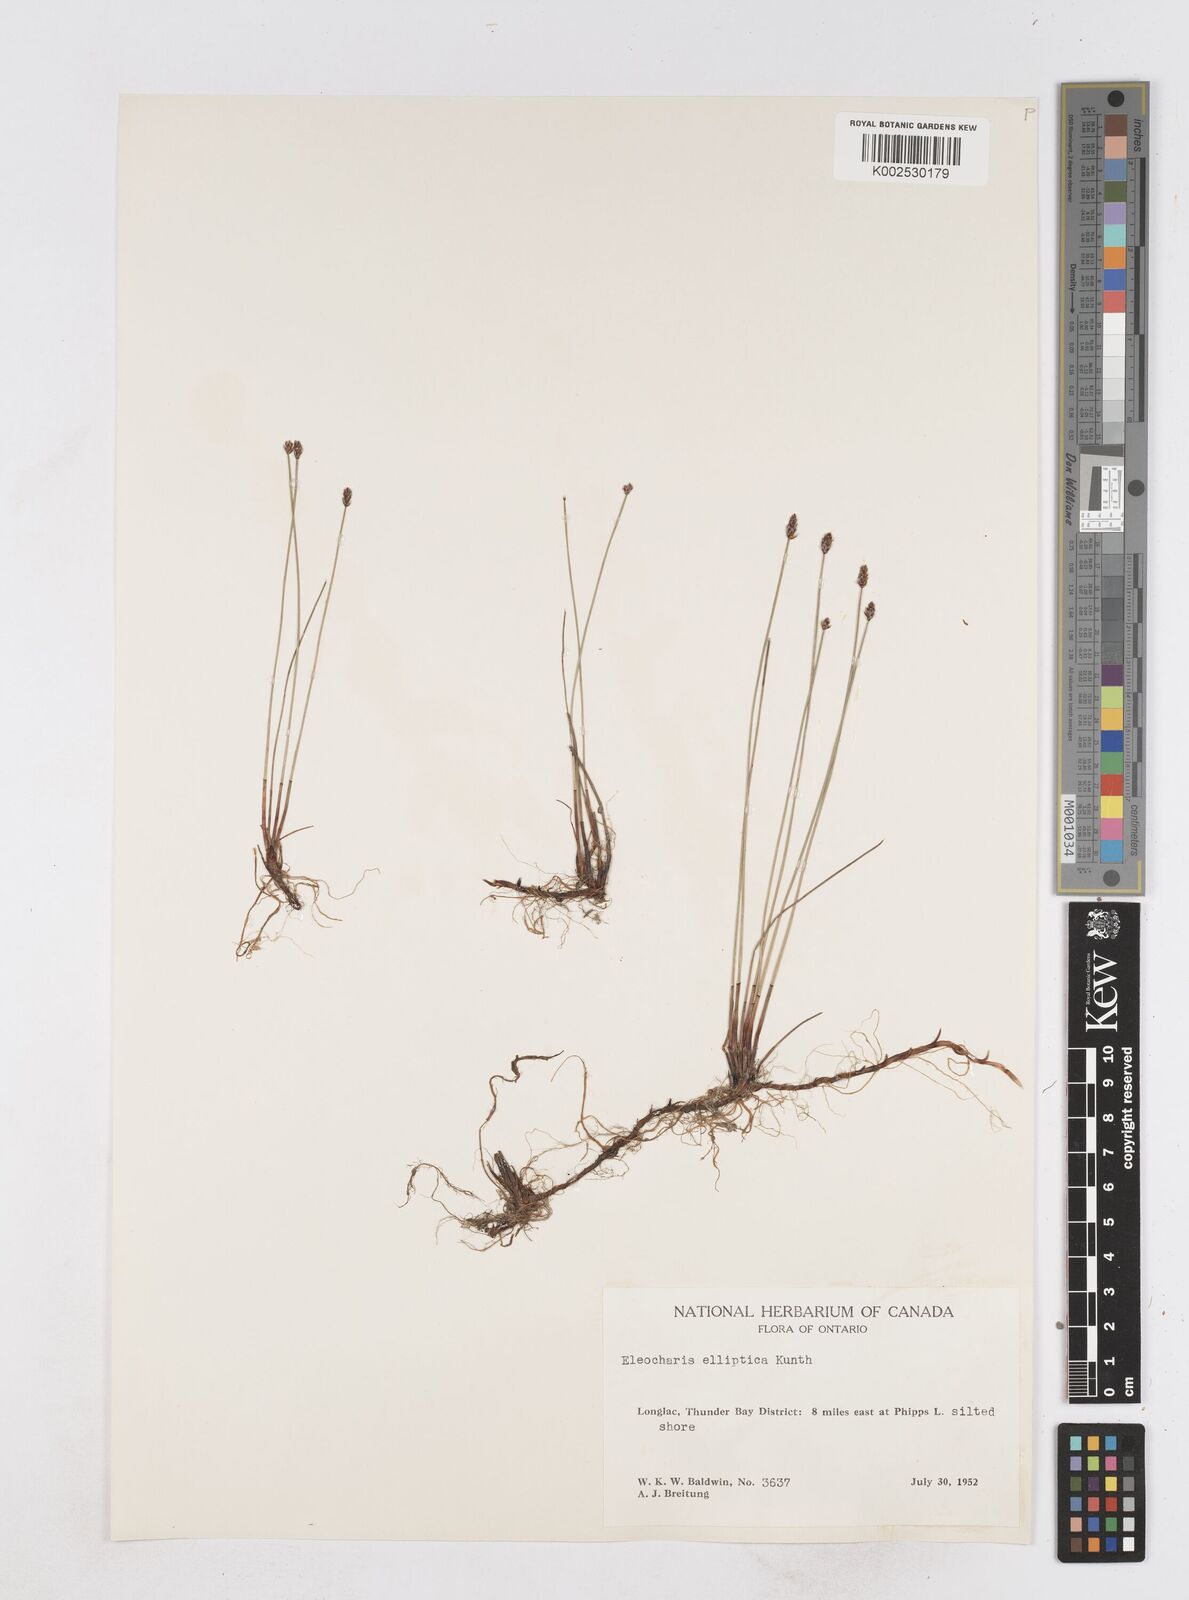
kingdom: Plantae
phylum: Tracheophyta
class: Liliopsida
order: Poales
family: Cyperaceae
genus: Eleocharis
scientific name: Eleocharis elliptica
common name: Capitate spikerush
